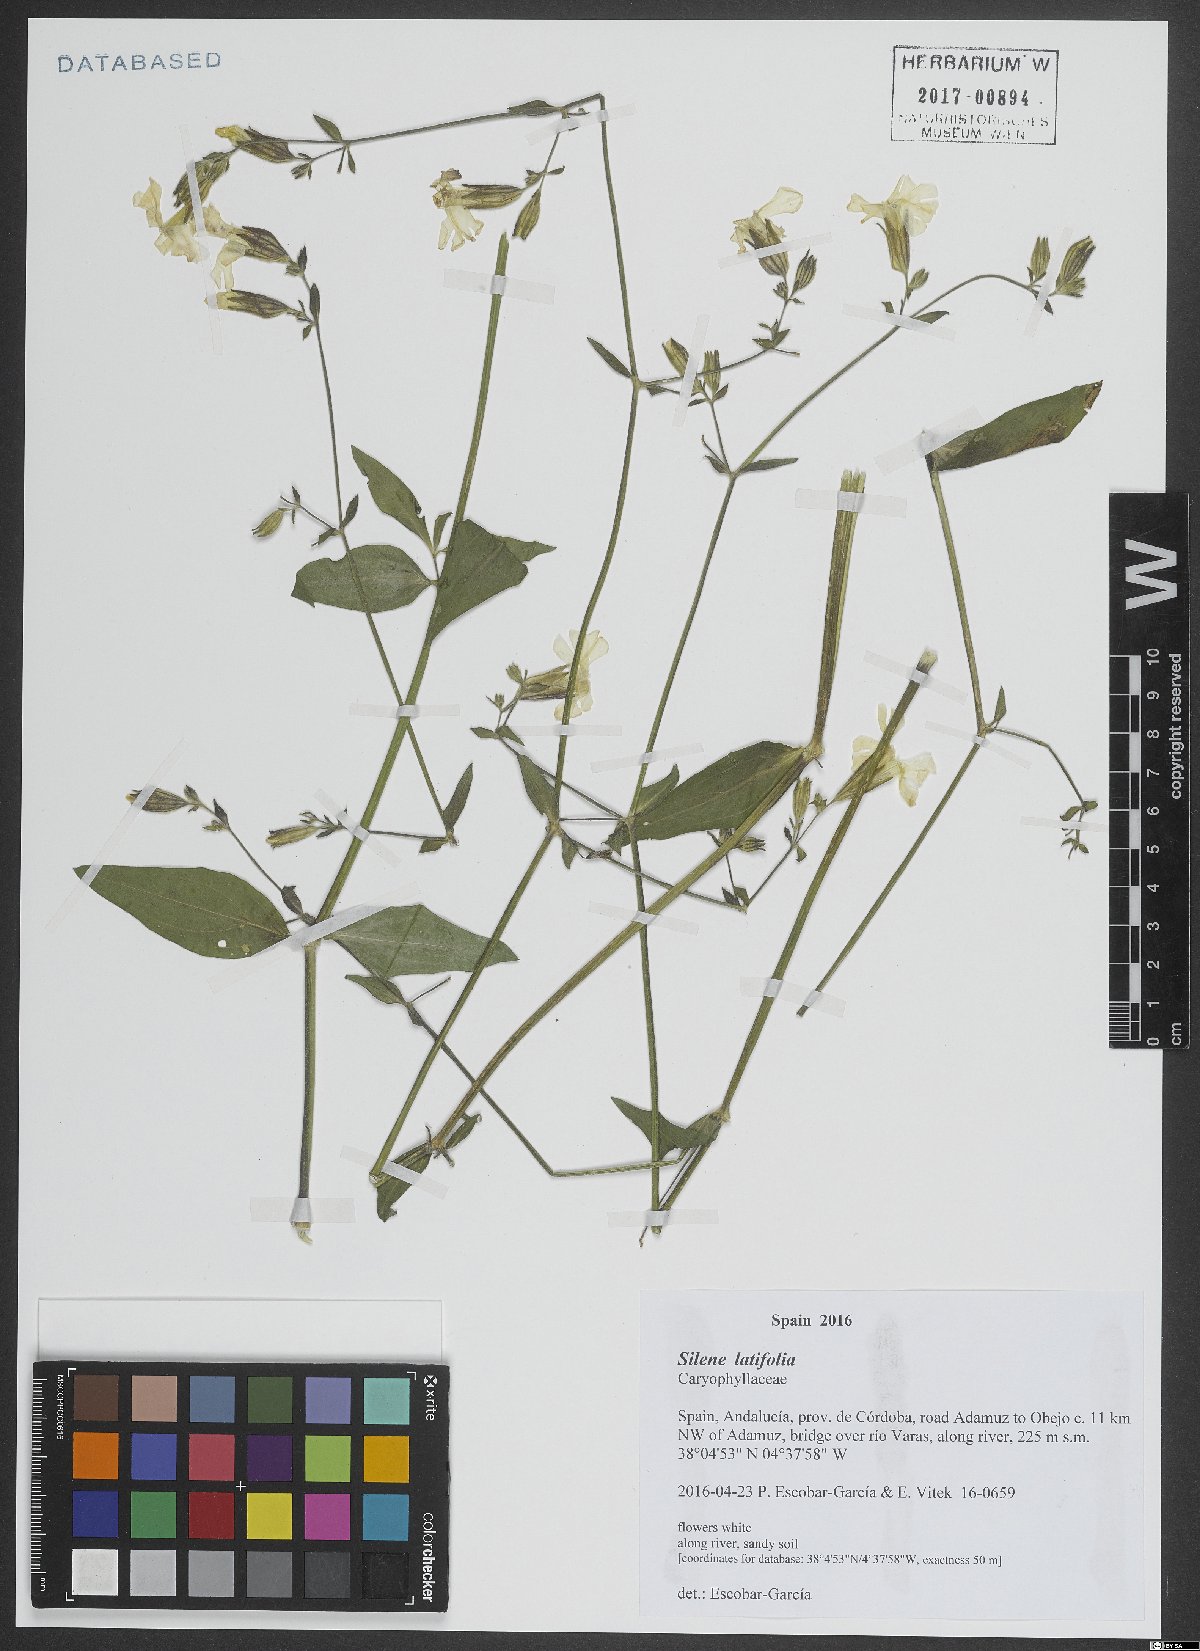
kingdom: Plantae
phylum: Tracheophyta
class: Magnoliopsida
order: Caryophyllales
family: Caryophyllaceae
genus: Silene
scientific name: Silene latifolia
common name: White campion
